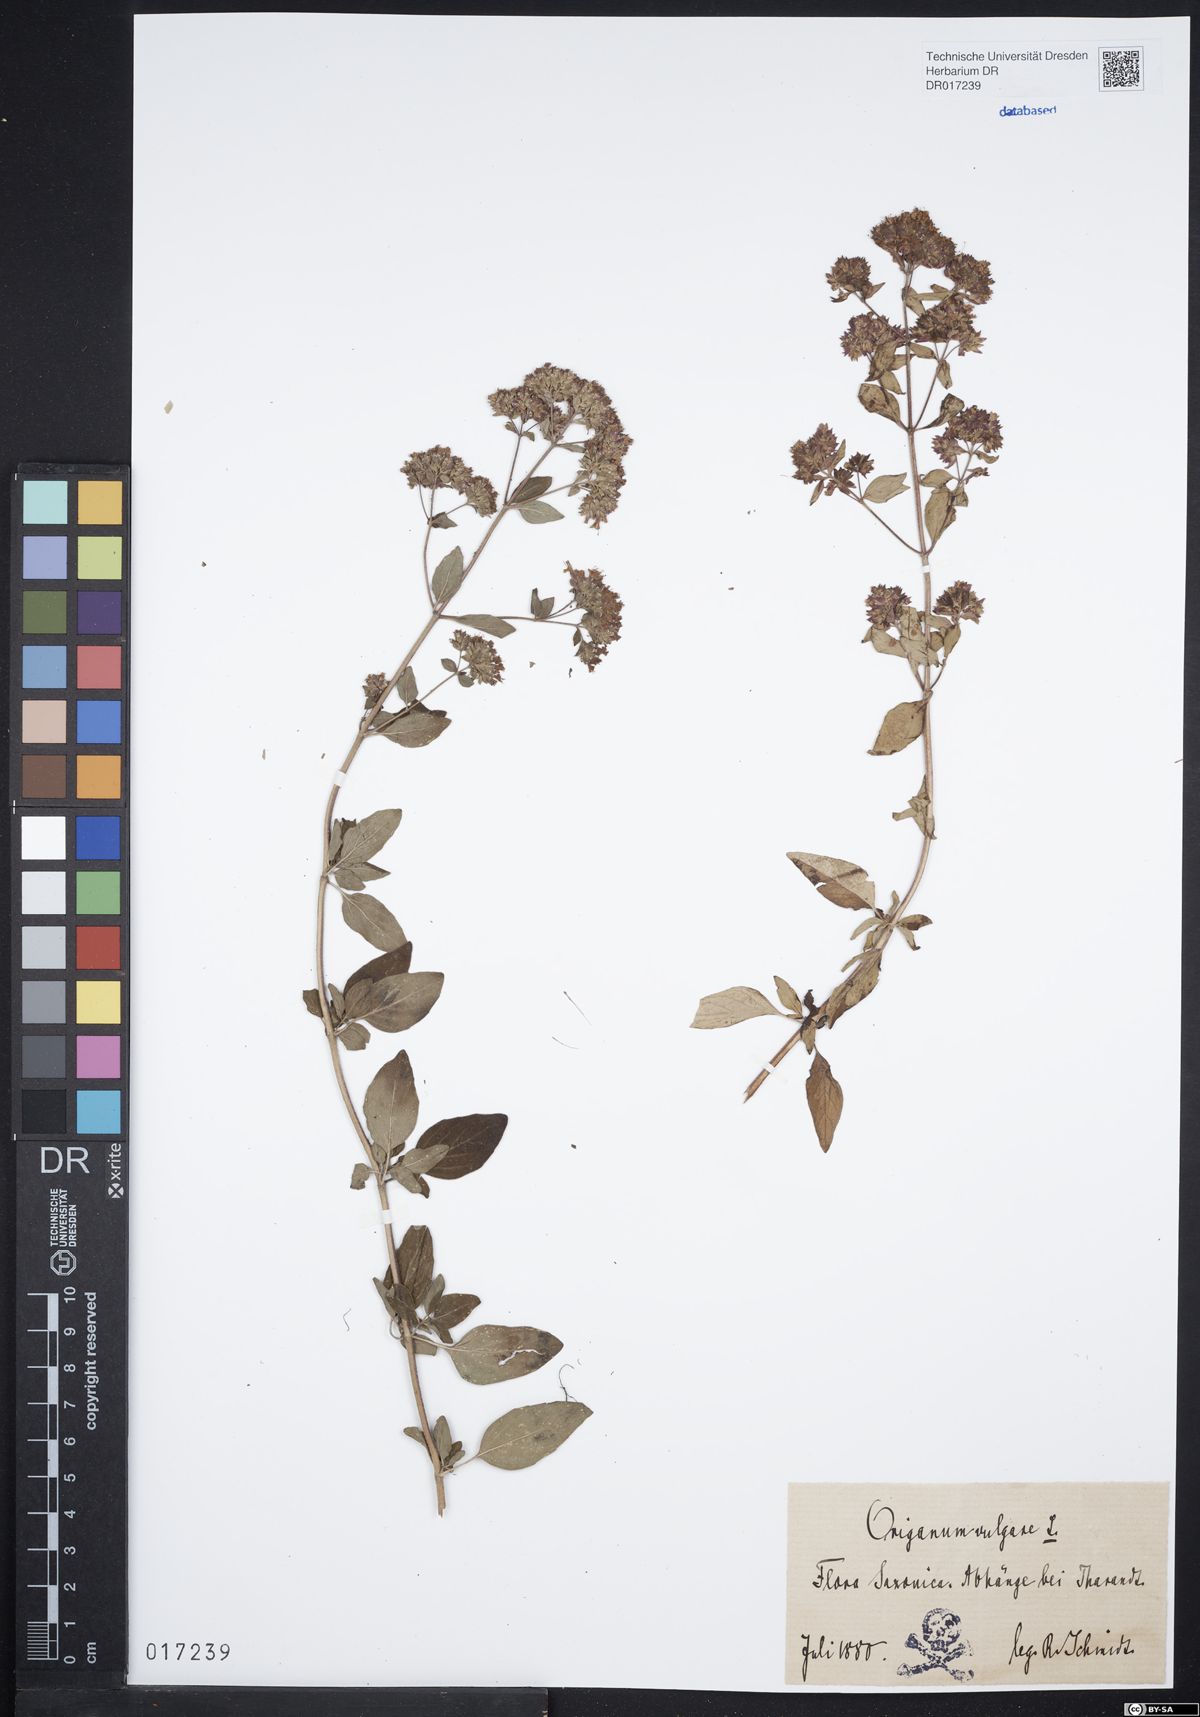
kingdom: Plantae
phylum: Tracheophyta
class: Magnoliopsida
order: Lamiales
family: Lamiaceae
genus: Origanum
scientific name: Origanum vulgare
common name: Wild marjoram
